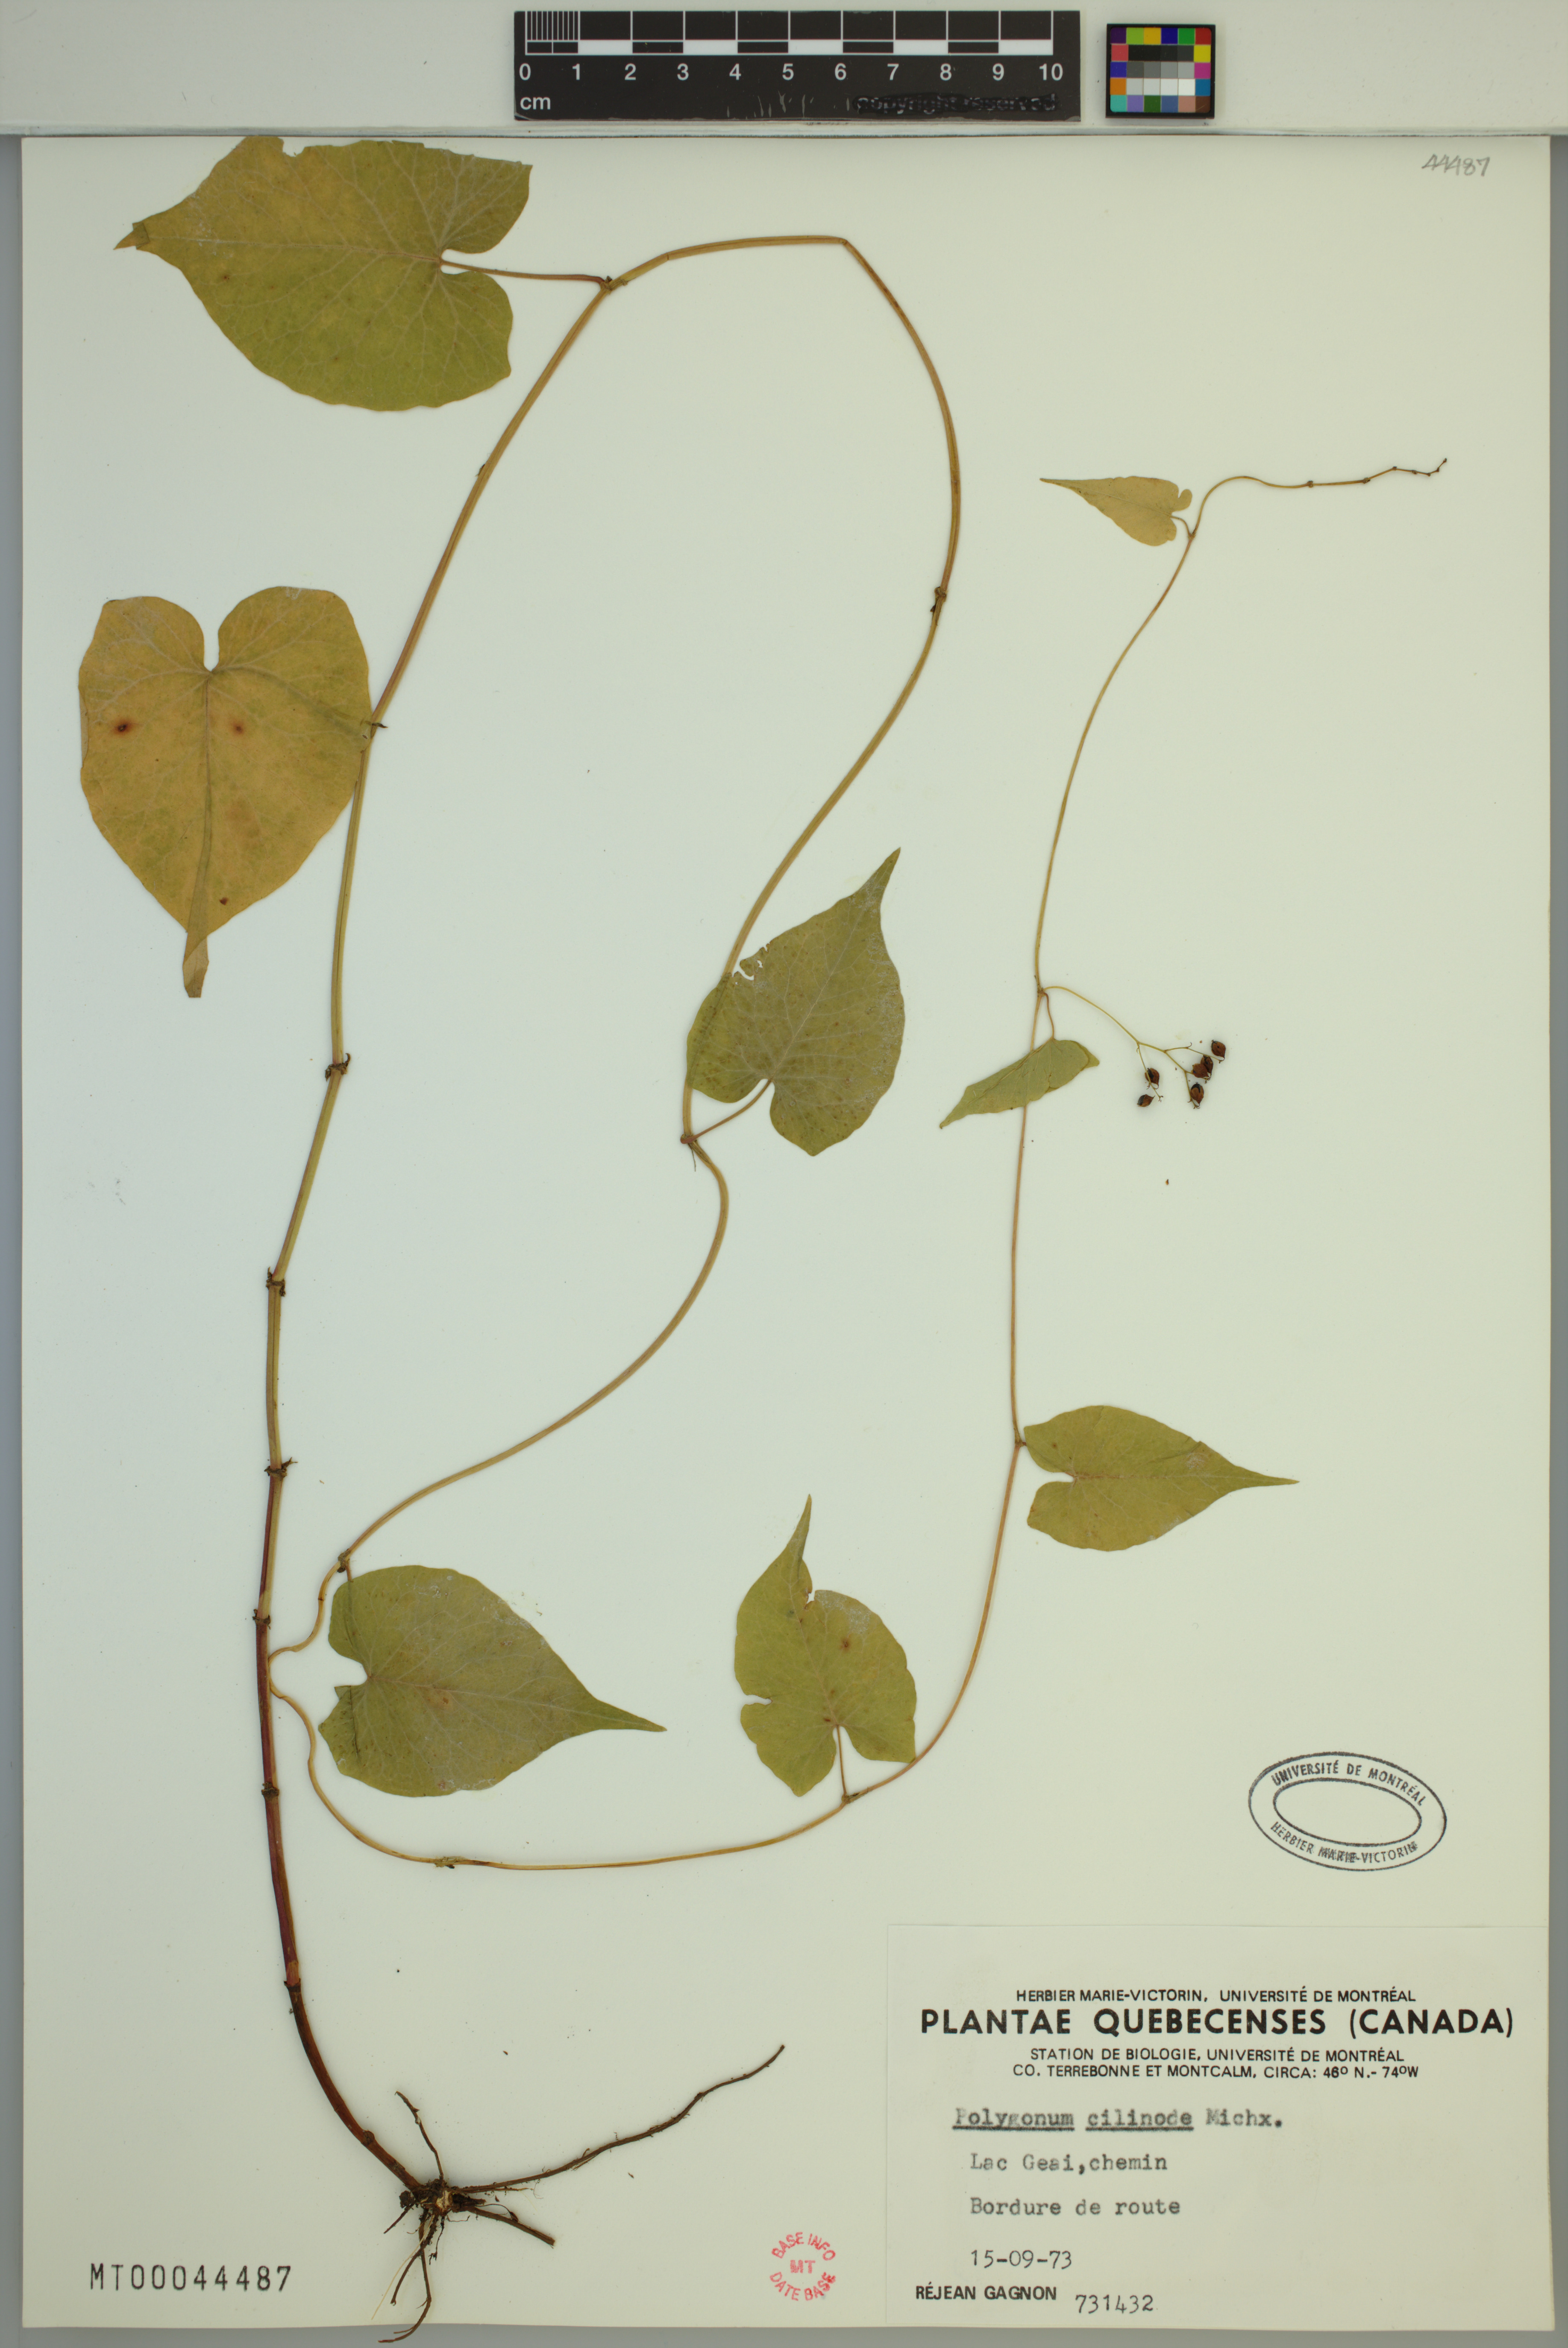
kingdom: Plantae
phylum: Tracheophyta
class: Magnoliopsida
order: Caryophyllales
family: Polygonaceae
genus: Parogonum
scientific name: Parogonum ciliinode
